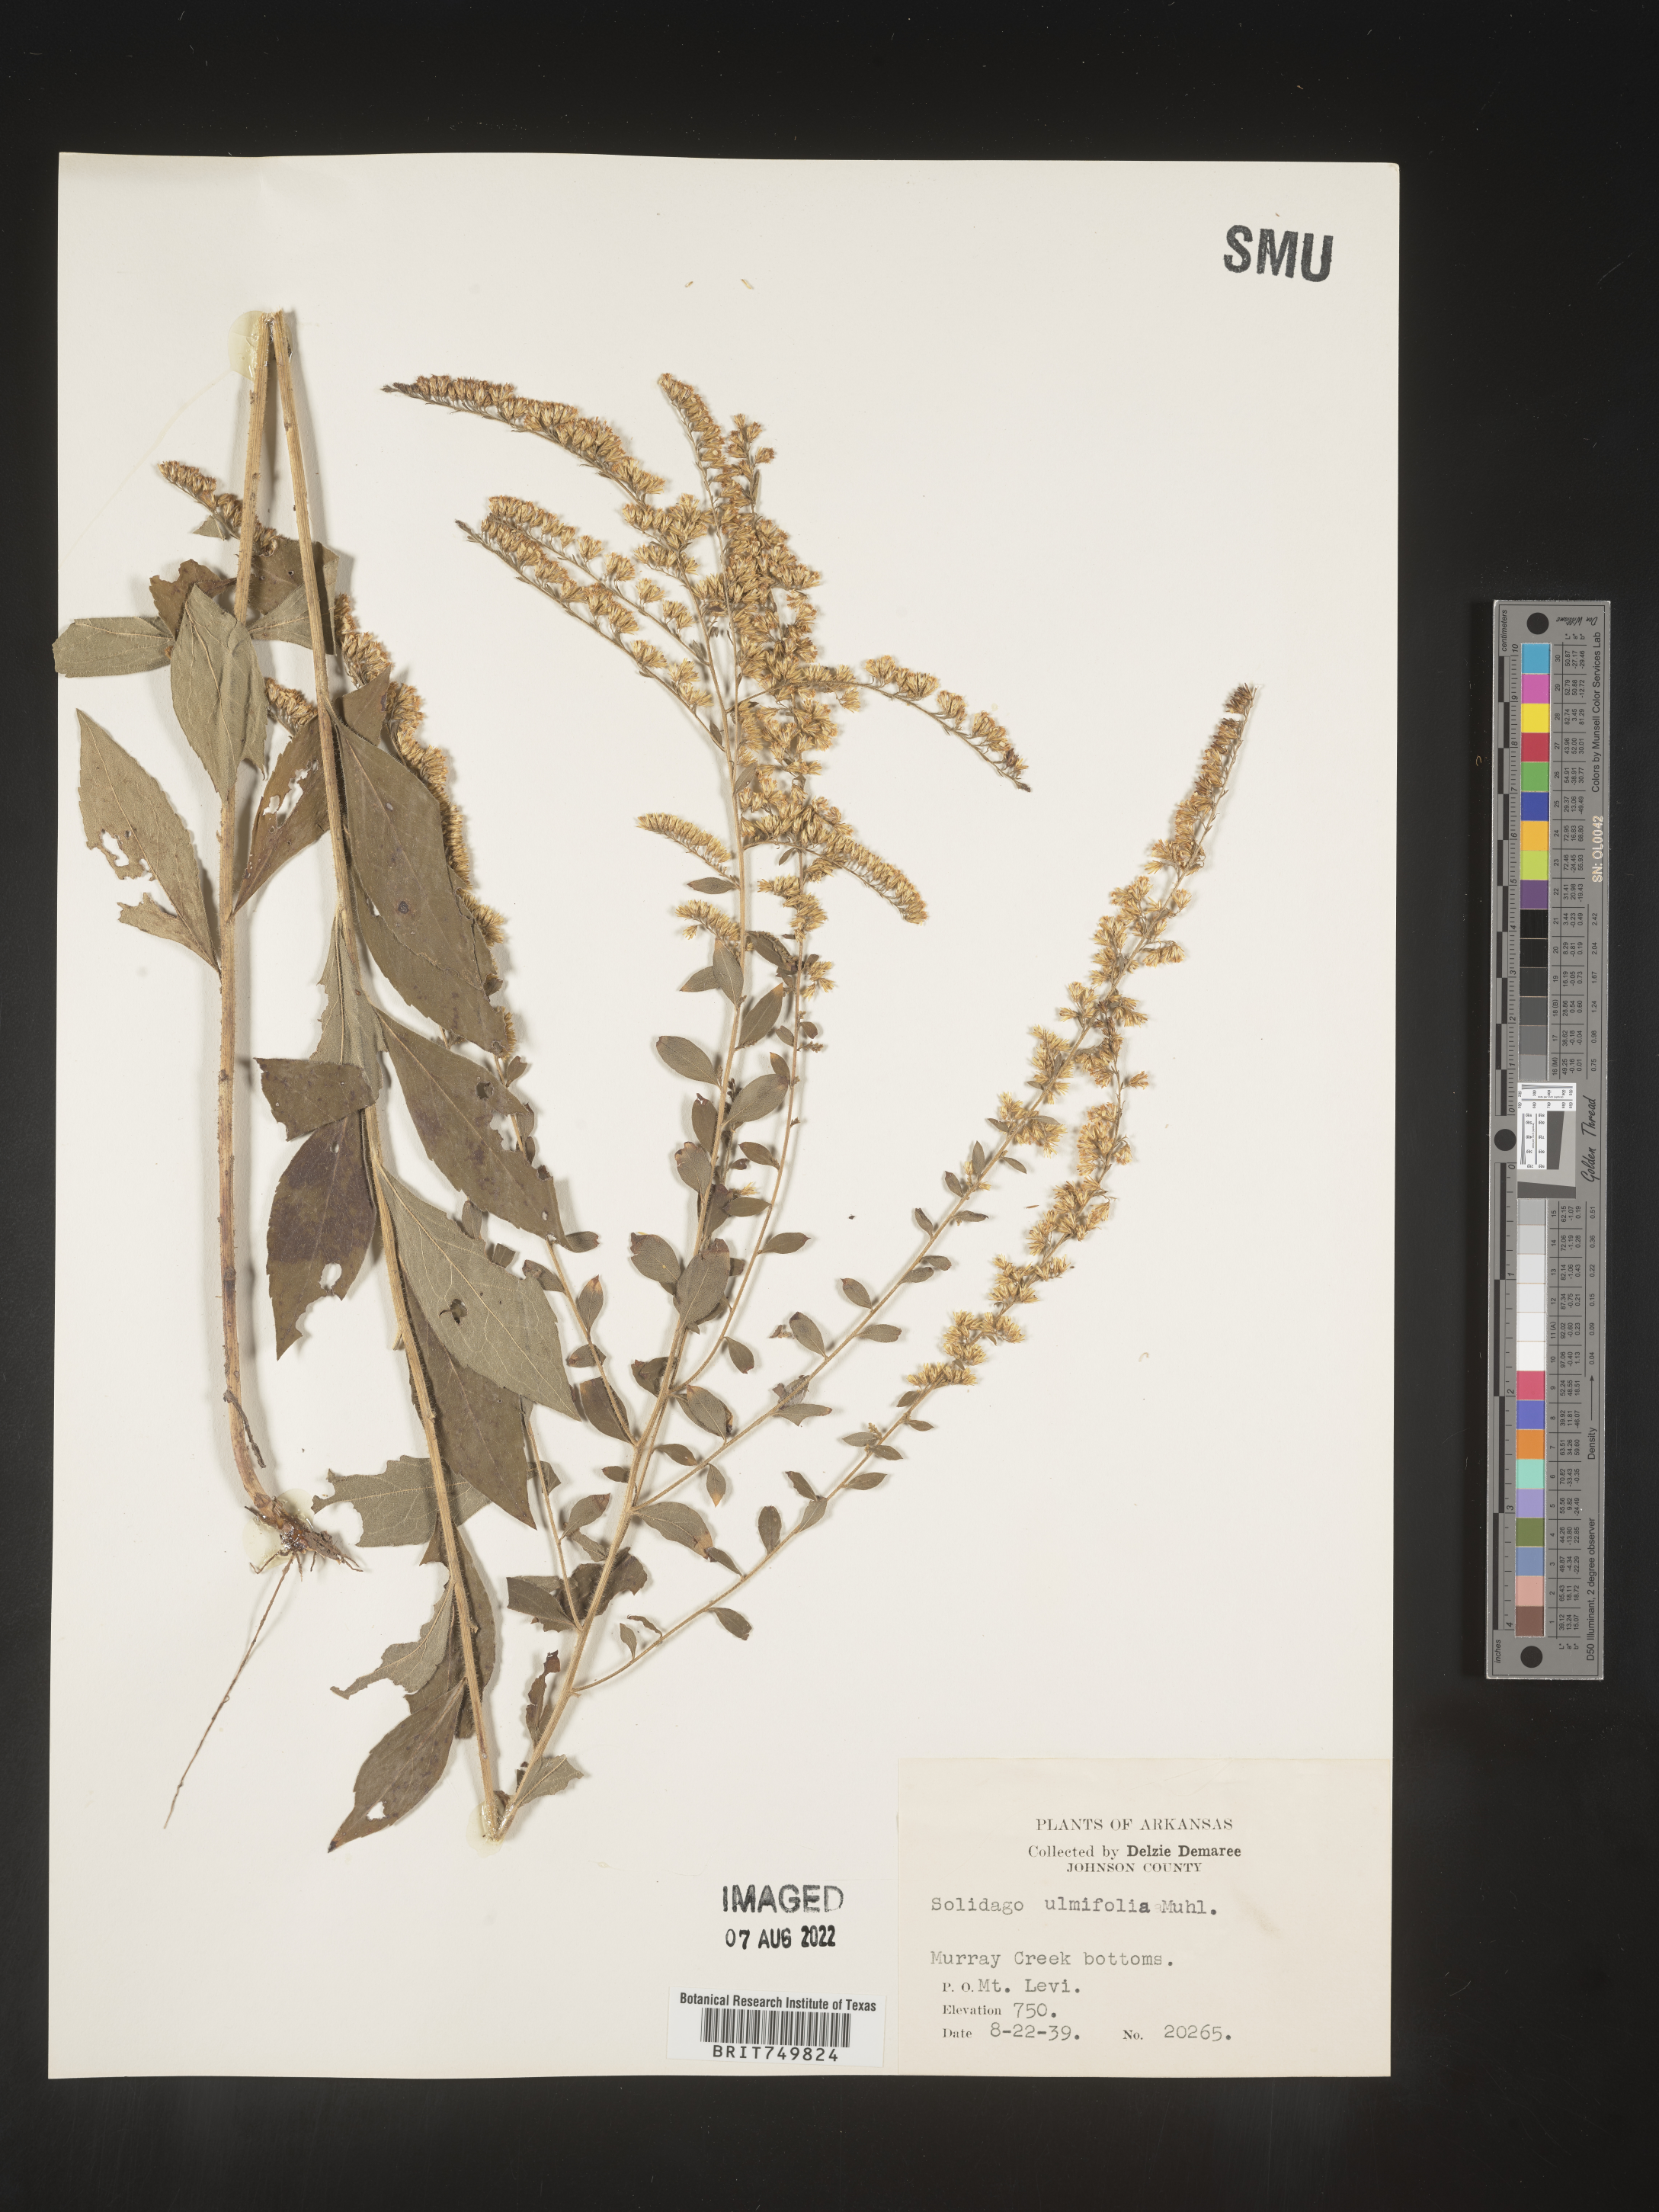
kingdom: Plantae
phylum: Tracheophyta
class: Magnoliopsida
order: Asterales
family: Asteraceae
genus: Solidago
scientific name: Solidago ulmifolia
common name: Elm-leaf goldenrod
